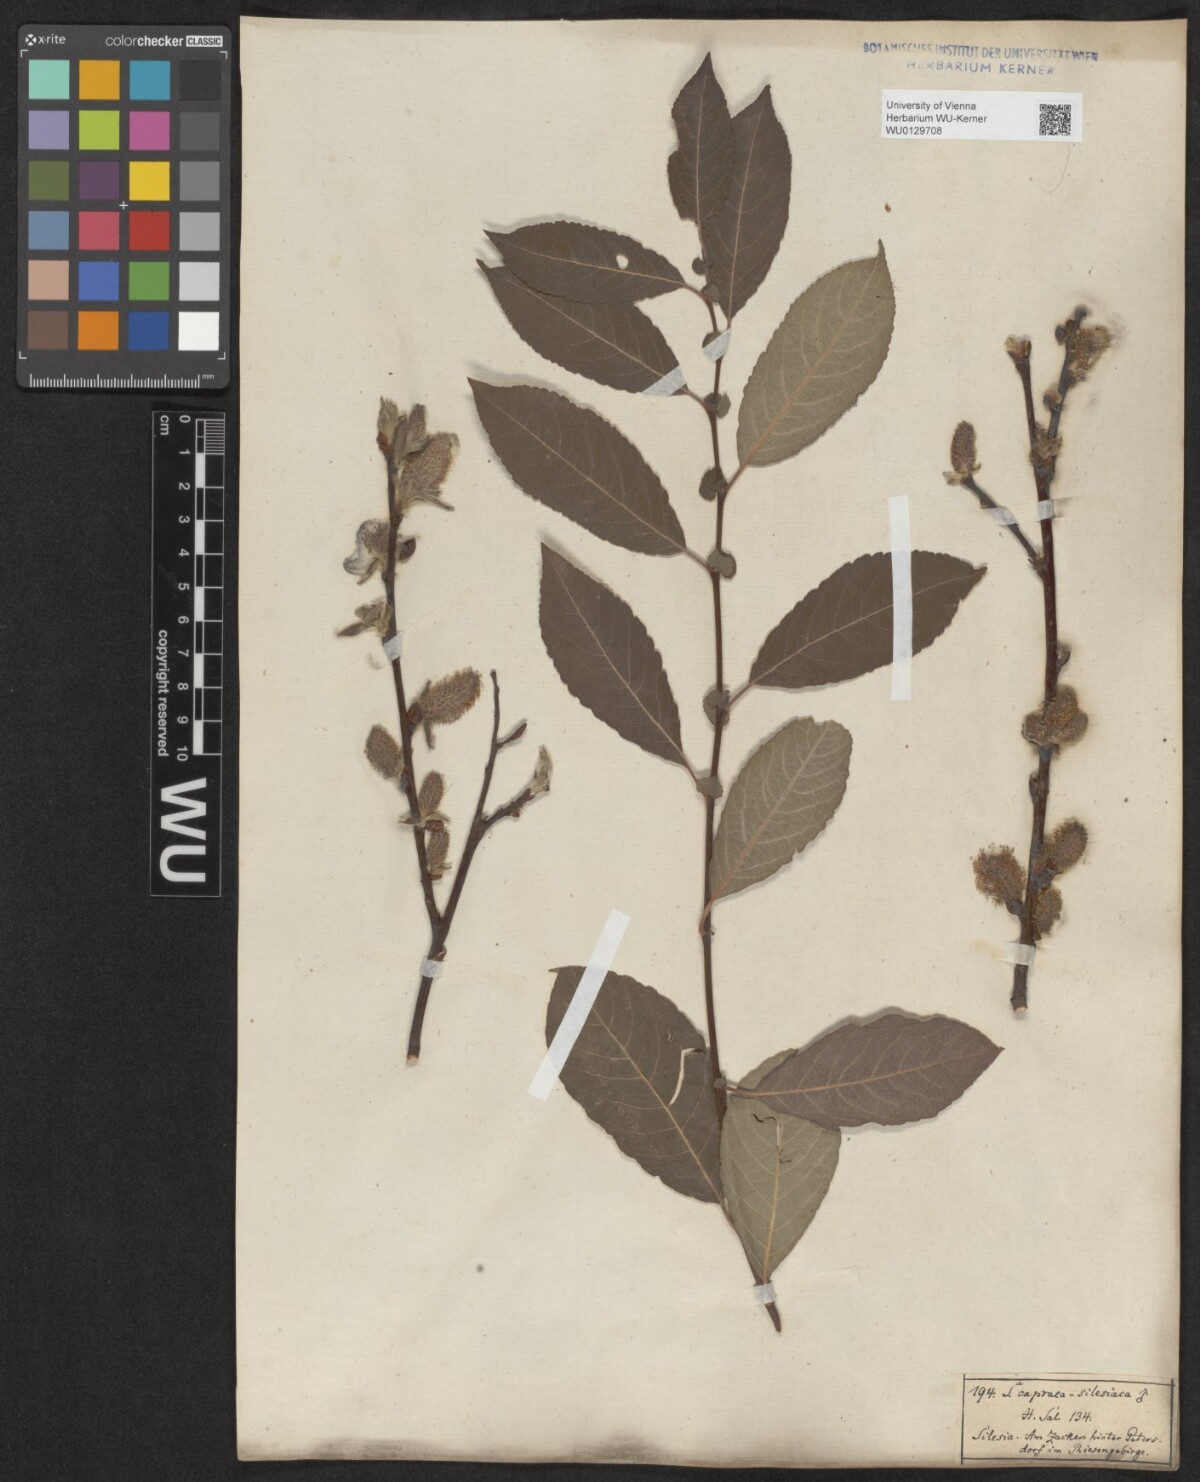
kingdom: Plantae
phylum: Tracheophyta
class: Magnoliopsida
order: Malpighiales
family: Salicaceae
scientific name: Salicaceae
